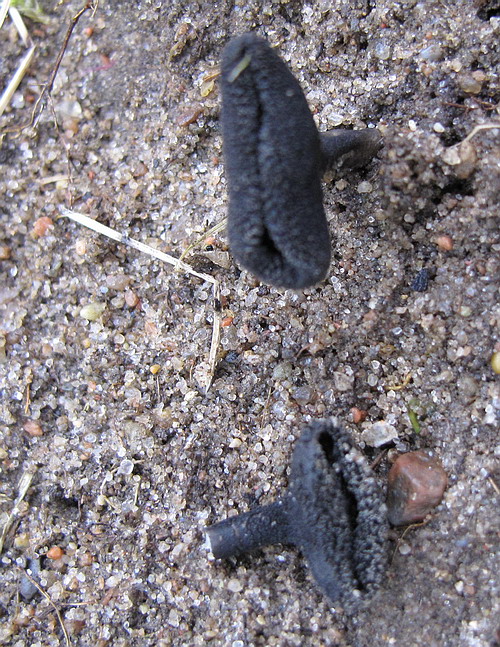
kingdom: Fungi
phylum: Ascomycota
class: Pezizomycetes
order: Pezizales
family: Helvellaceae
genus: Helvella
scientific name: Helvella corium
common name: pile-foldhat
